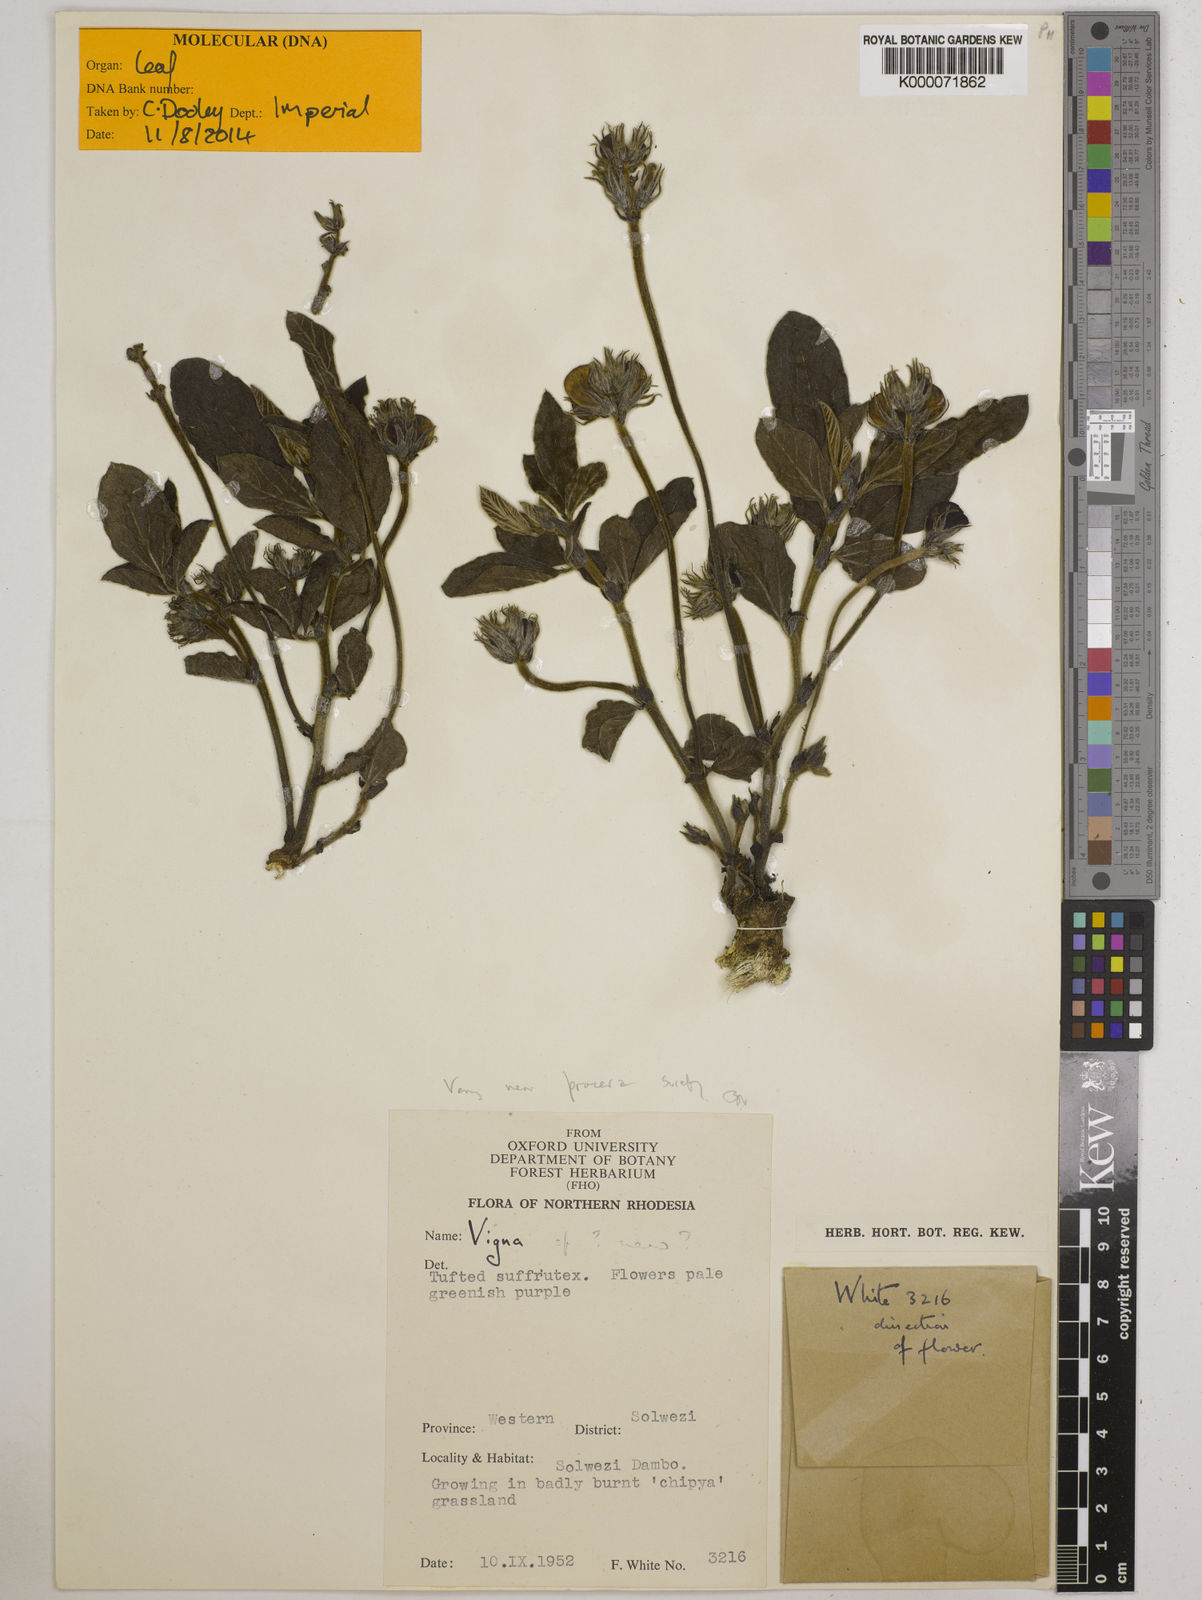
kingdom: Plantae
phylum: Tracheophyta
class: Magnoliopsida
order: Fabales
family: Fabaceae
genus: Vigna
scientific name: Vigna procera
